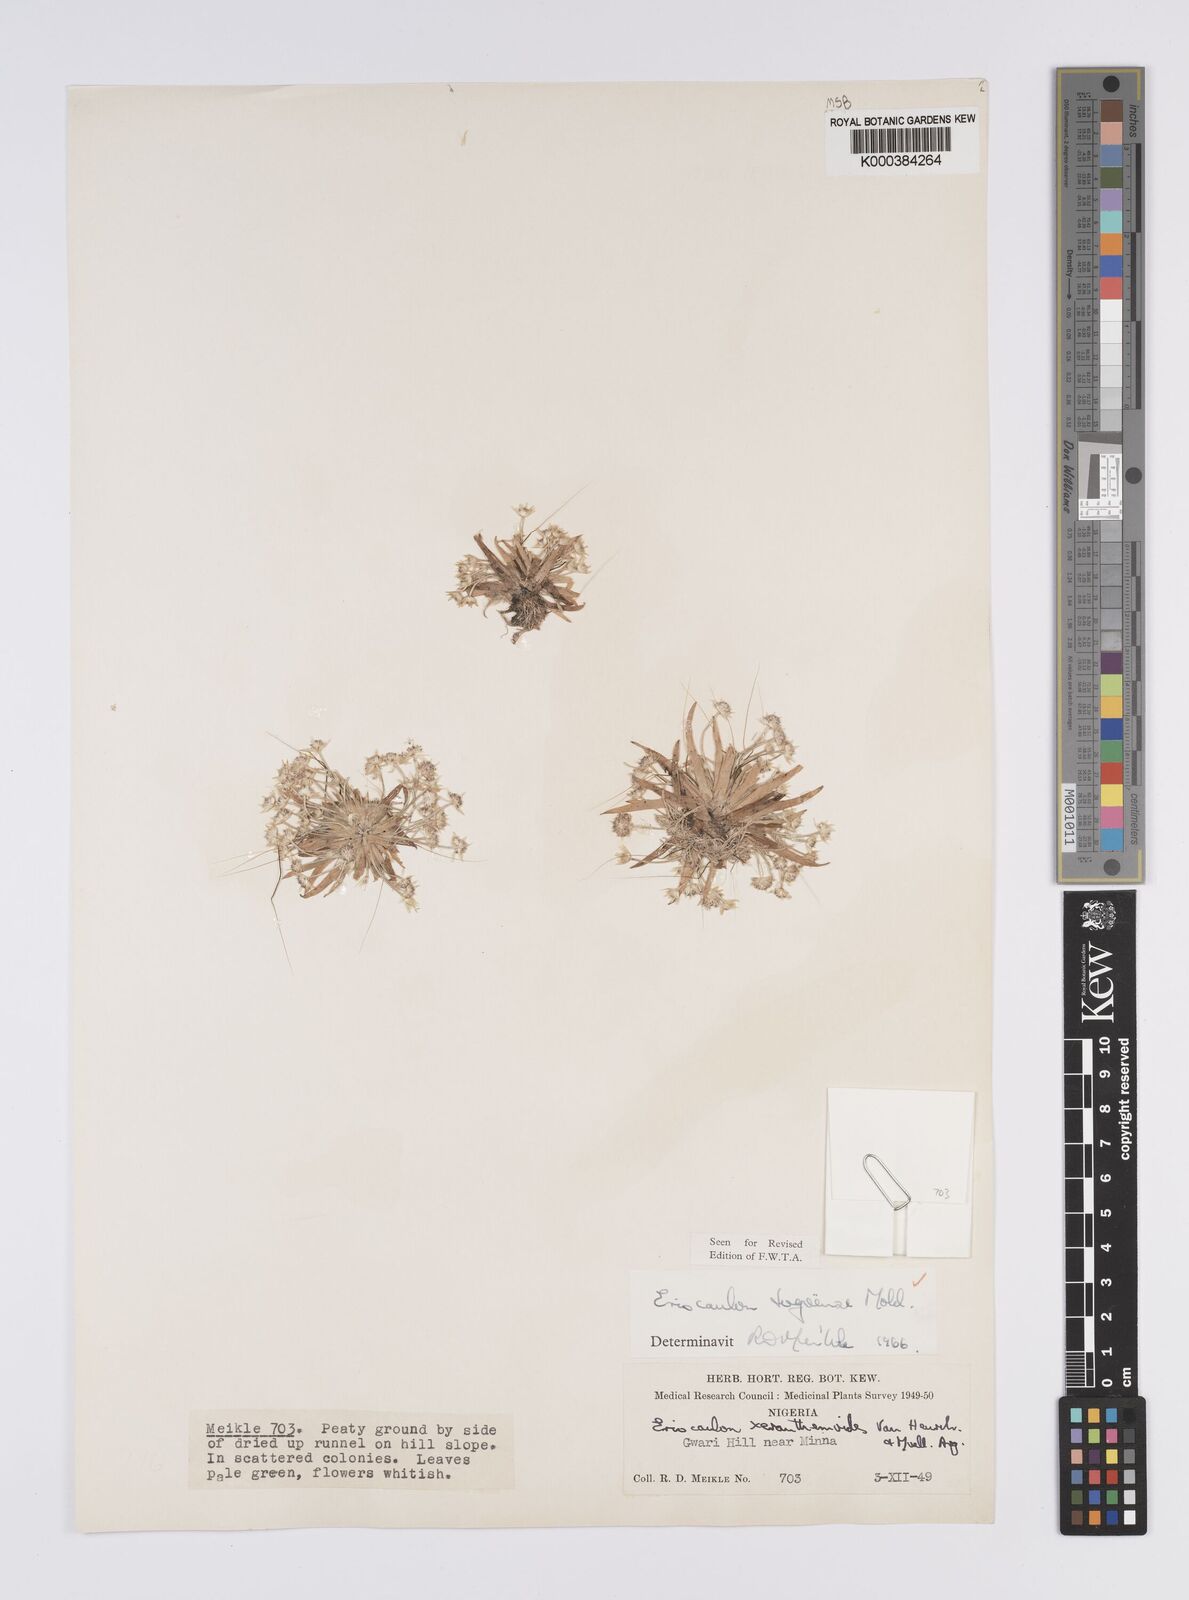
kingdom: Plantae
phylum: Tracheophyta
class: Liliopsida
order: Poales
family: Eriocaulaceae
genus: Eriocaulon
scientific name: Eriocaulon togoense
